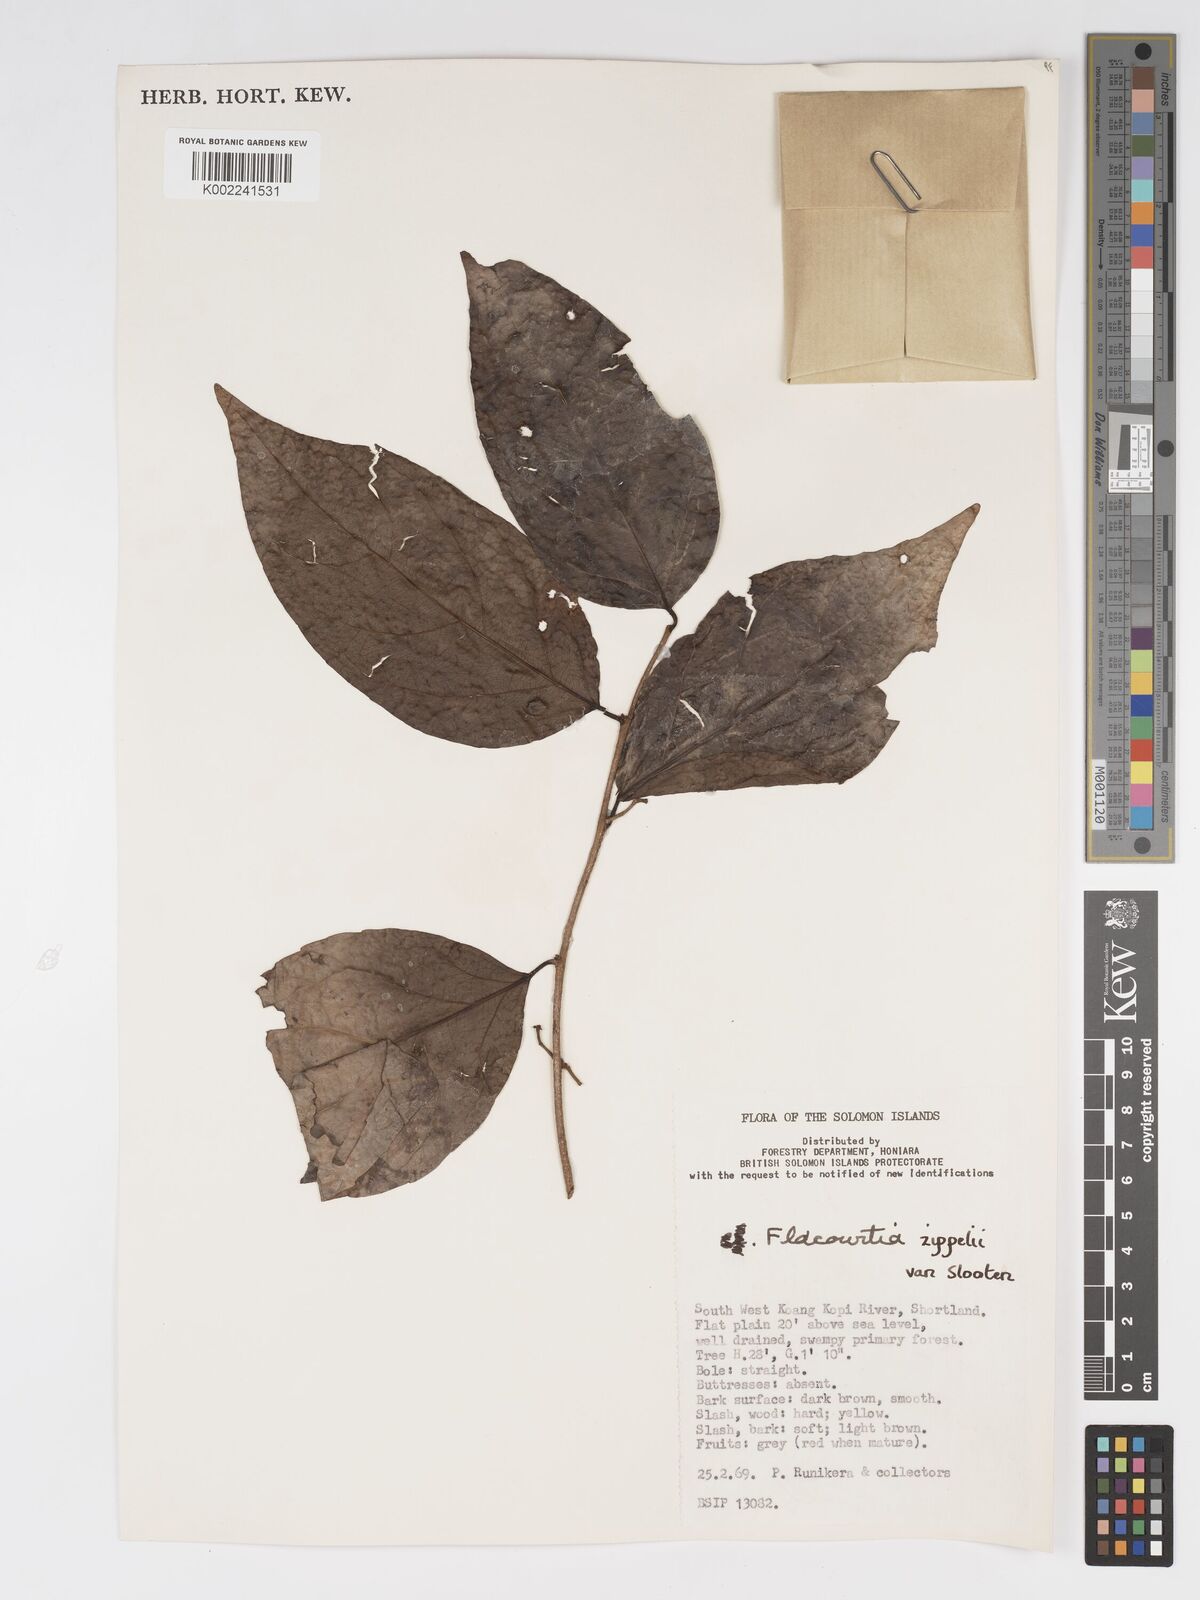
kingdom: Plantae
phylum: Tracheophyta
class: Magnoliopsida
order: Malpighiales
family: Salicaceae
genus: Flacourtia
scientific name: Flacourtia zippelii
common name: Zippeli plum
